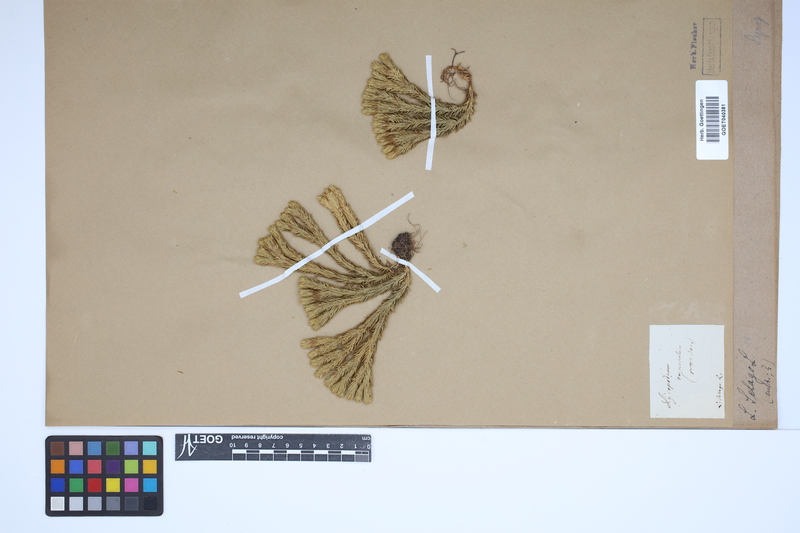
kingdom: Plantae
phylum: Tracheophyta
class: Lycopodiopsida
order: Lycopodiales
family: Lycopodiaceae
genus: Huperzia
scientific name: Huperzia selago
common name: Northern firmoss
